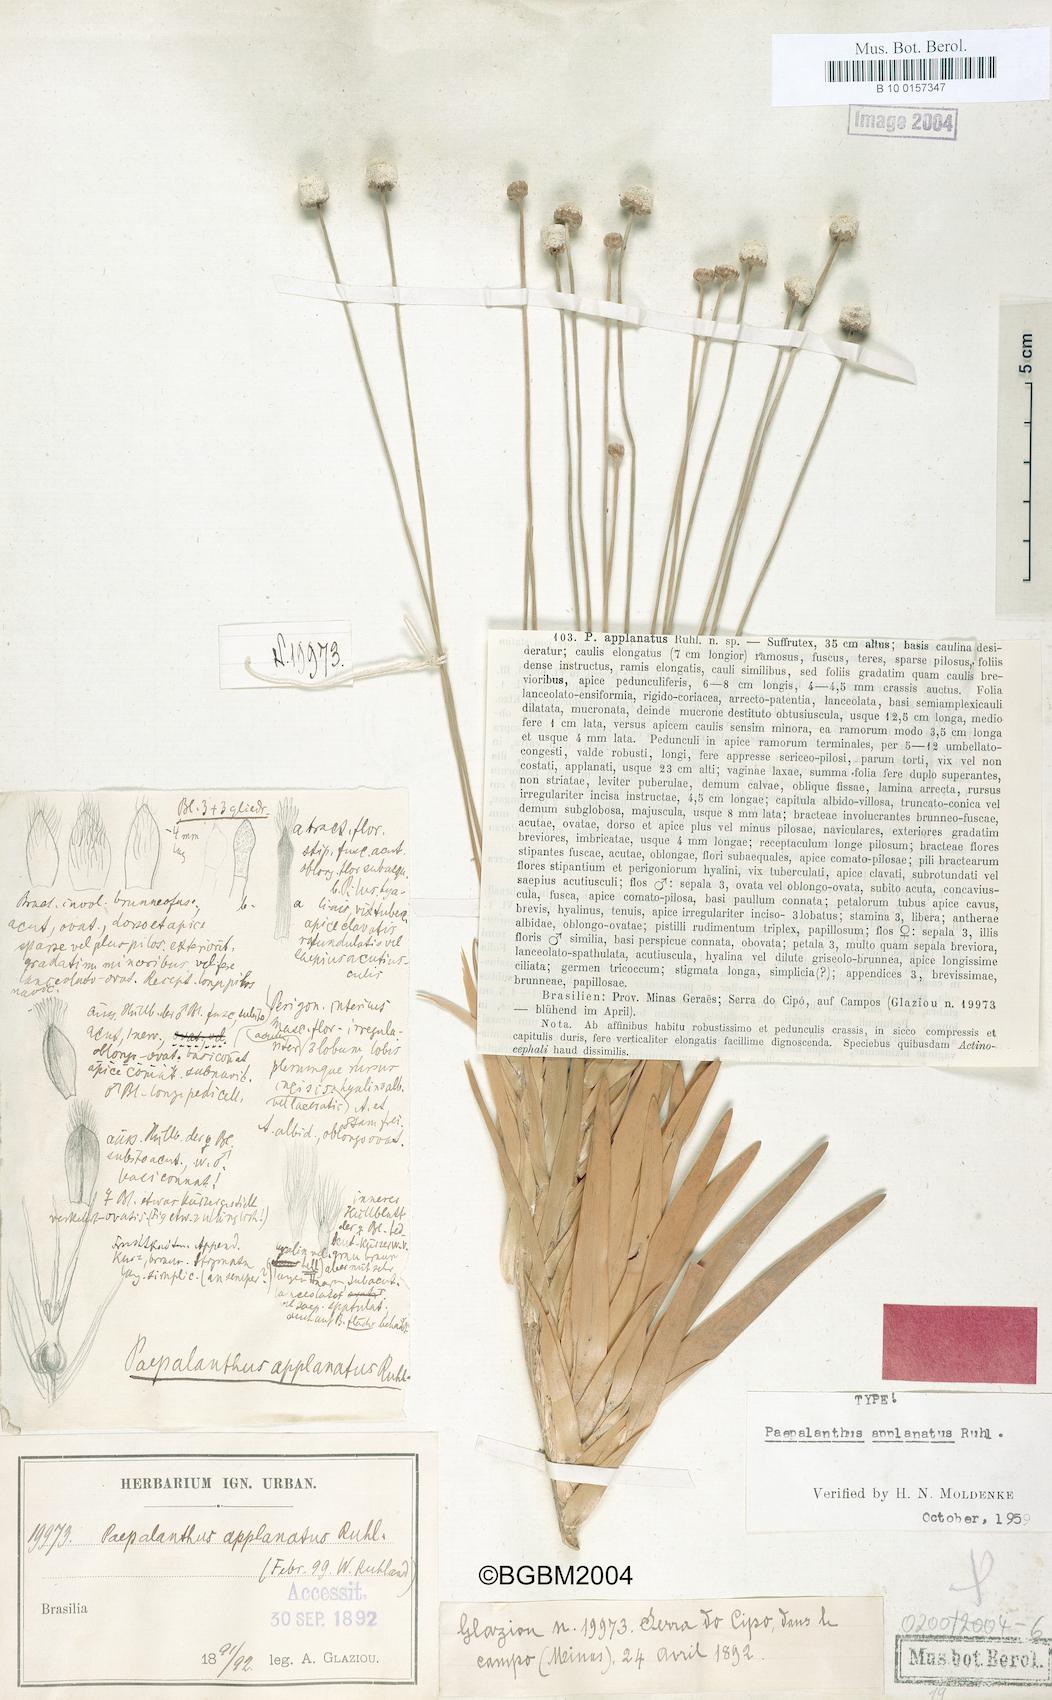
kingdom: Plantae
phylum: Tracheophyta
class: Liliopsida
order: Poales
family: Eriocaulaceae
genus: Paepalanthus
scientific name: Paepalanthus longifolius
